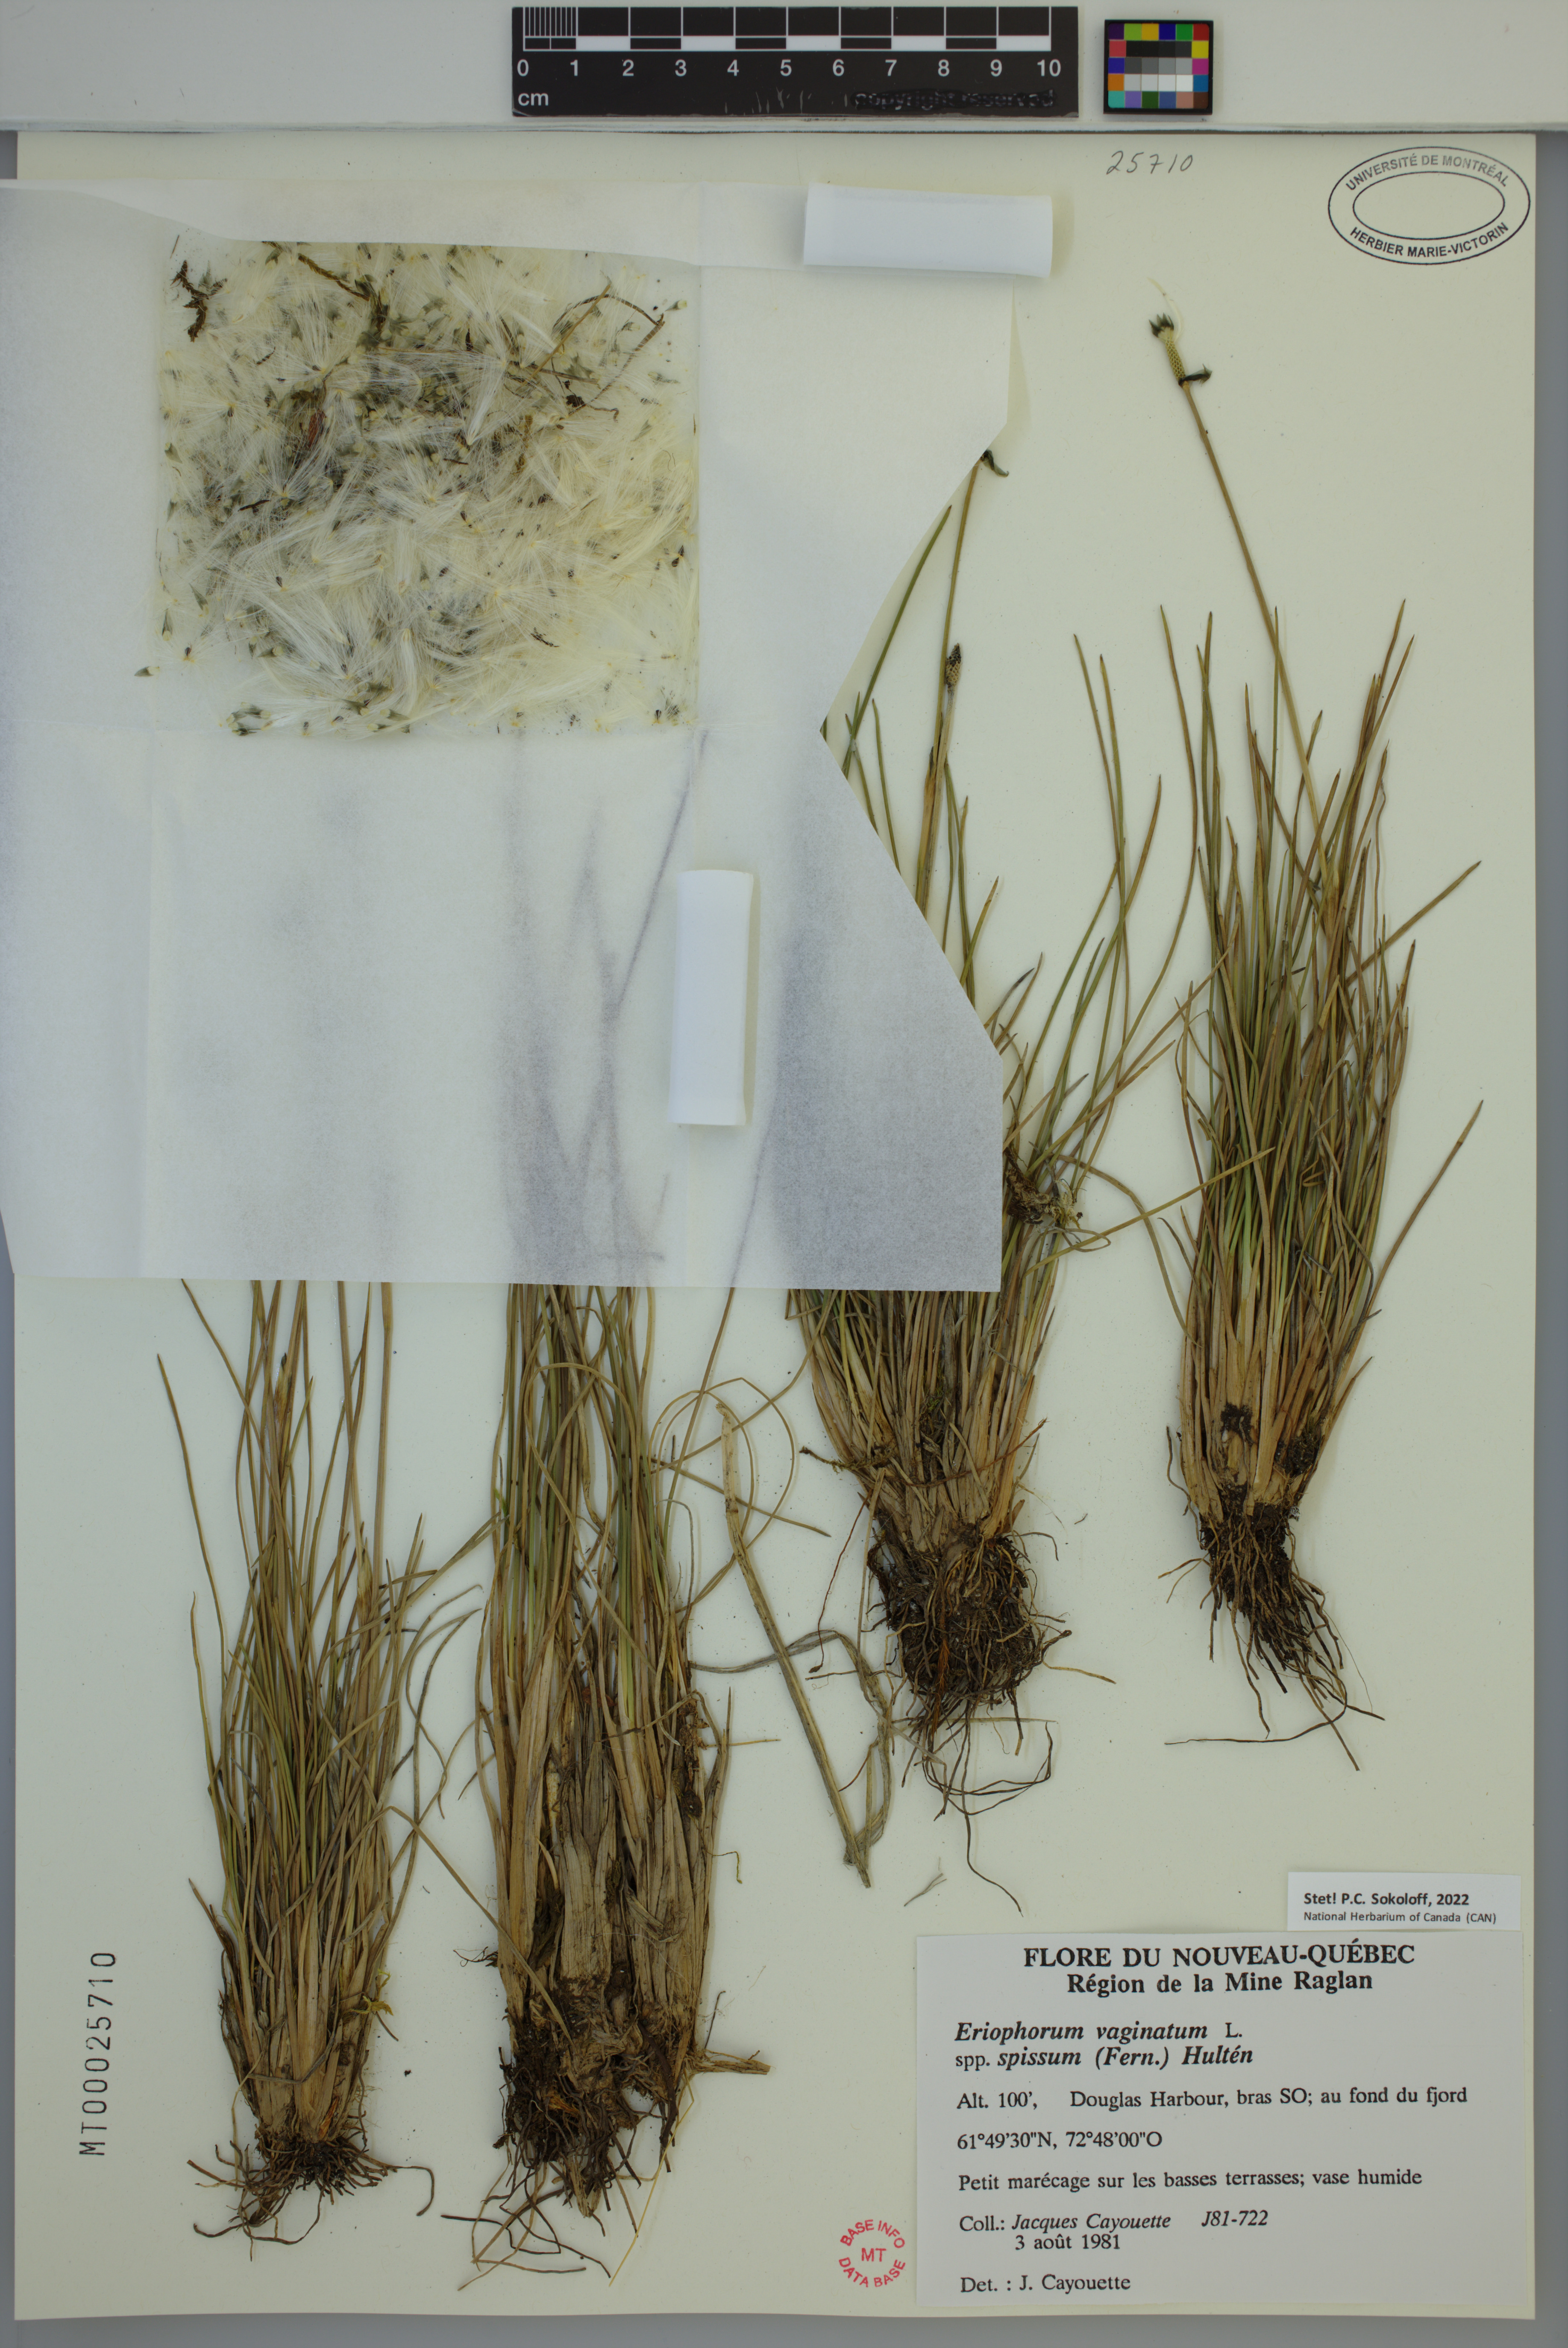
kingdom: Plantae
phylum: Tracheophyta
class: Liliopsida
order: Poales
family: Cyperaceae
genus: Eriophorum
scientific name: Eriophorum vaginatum
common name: Hare's-tail cottongrass
